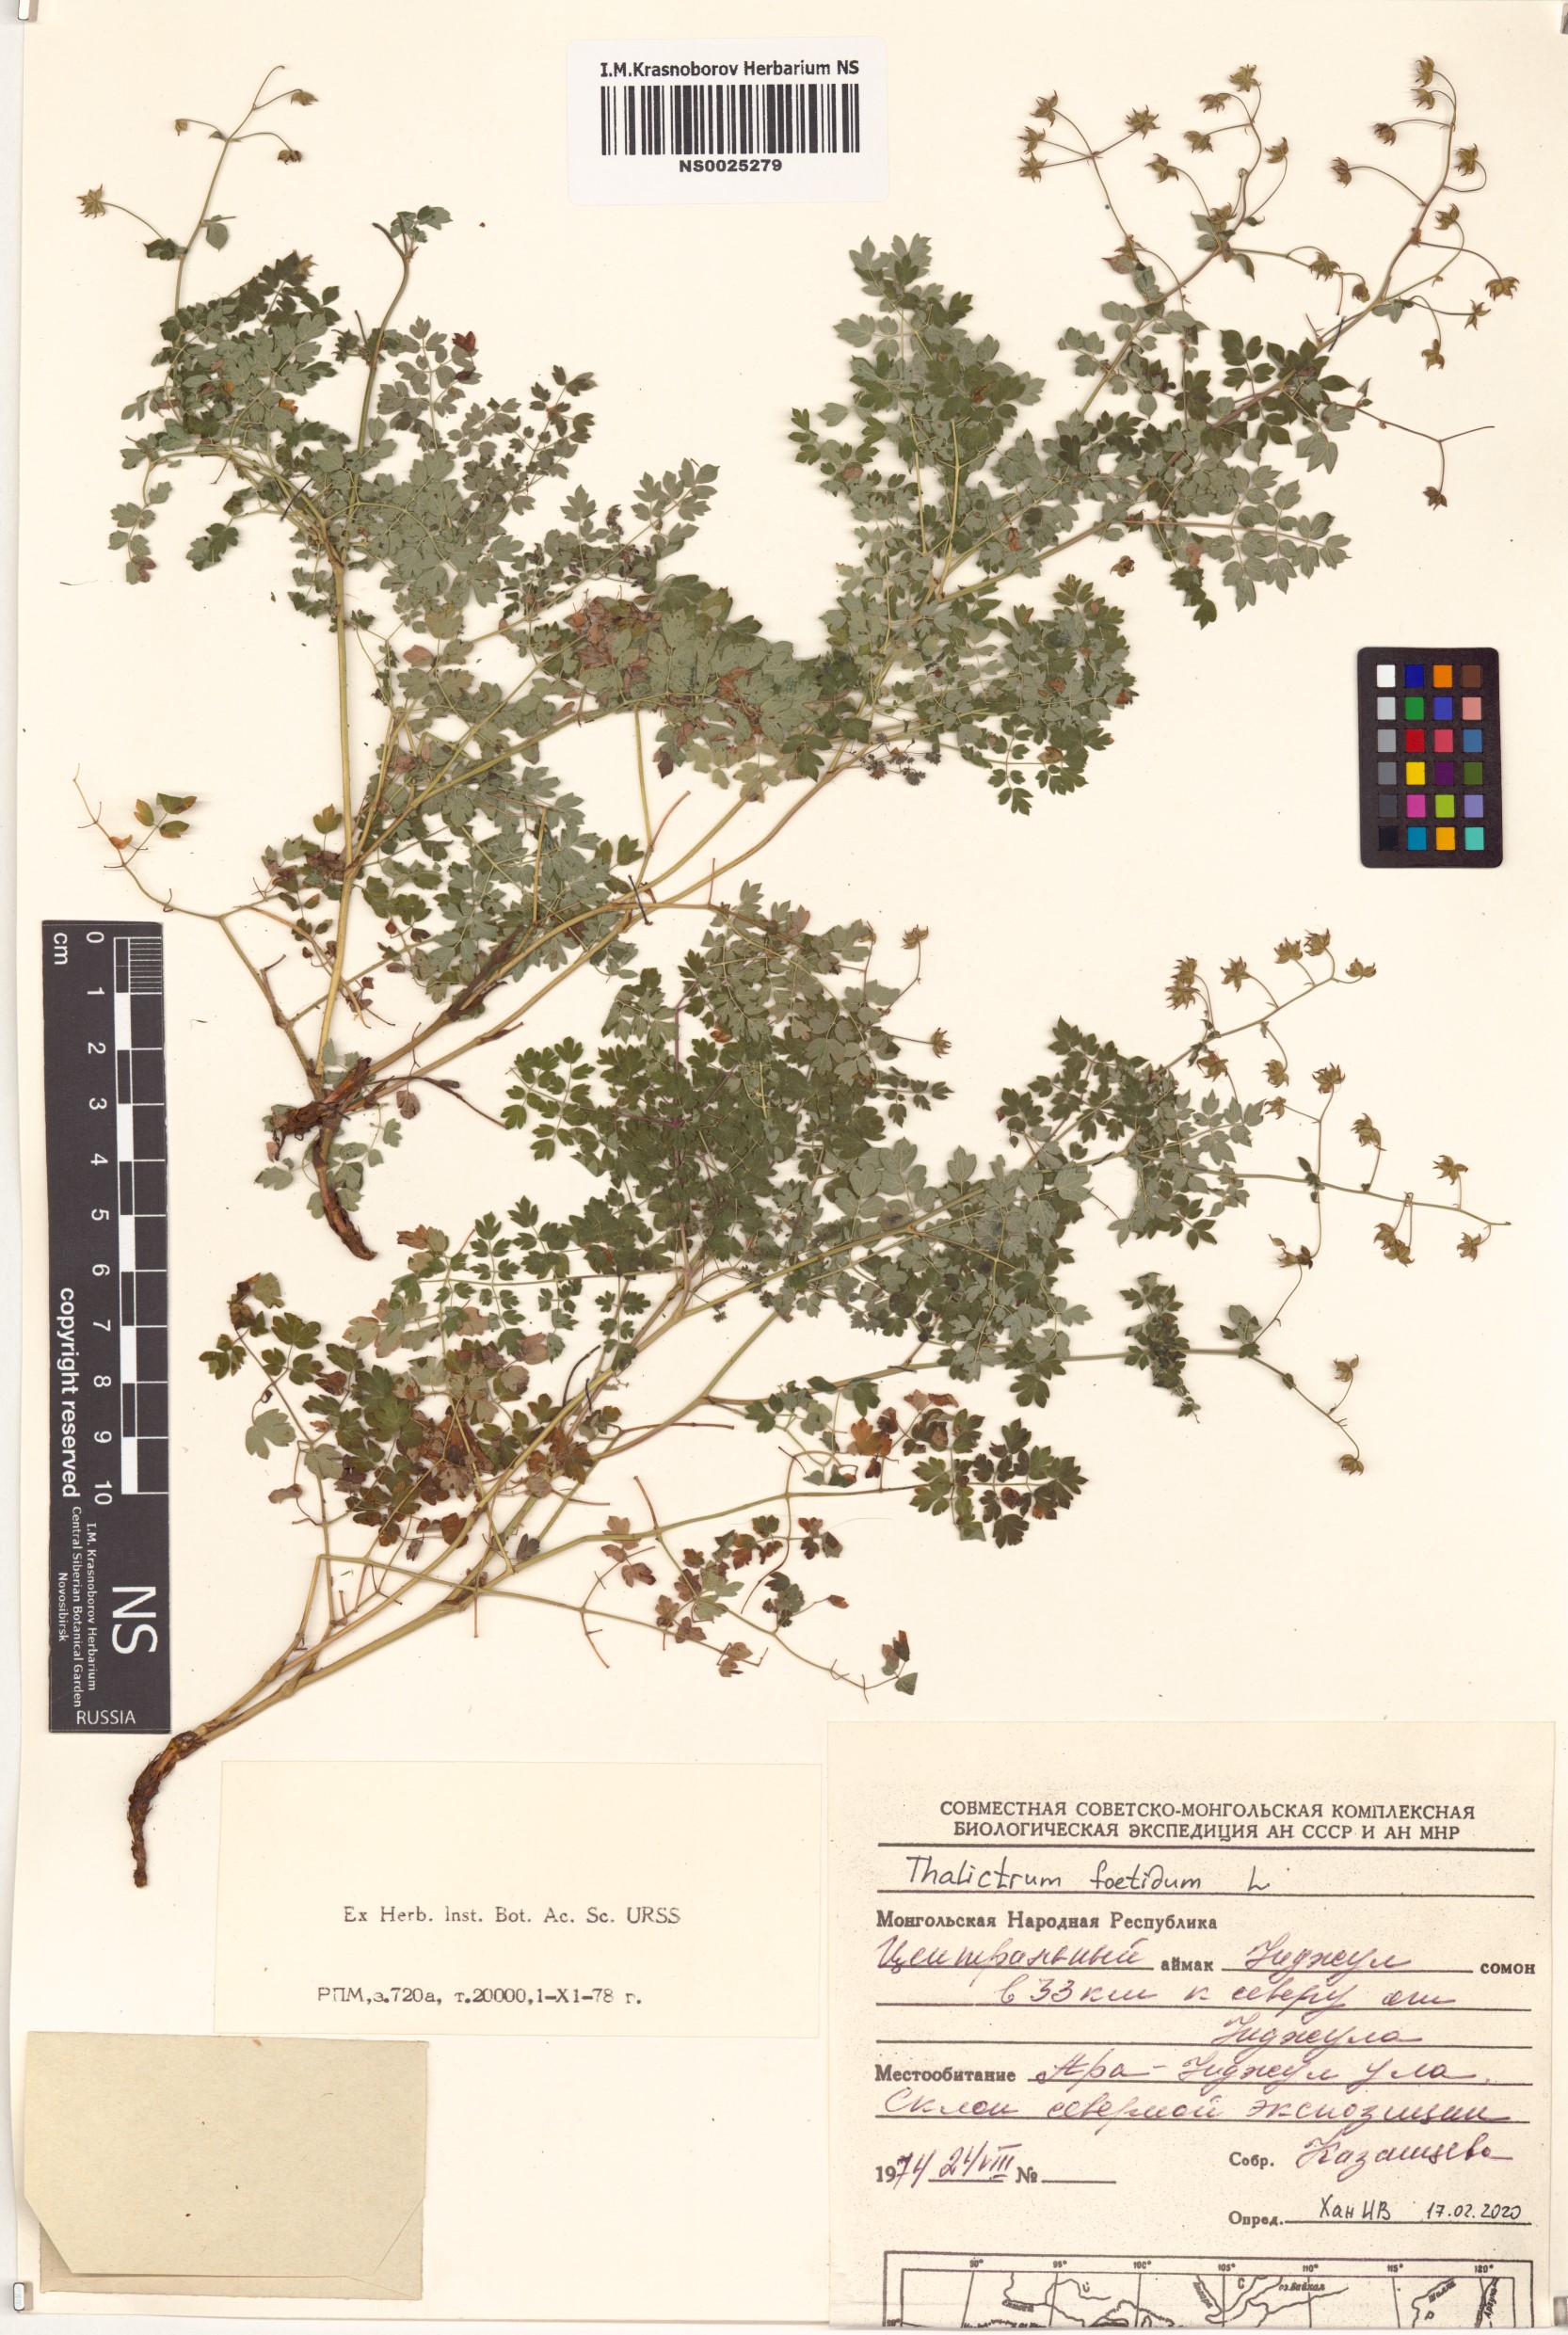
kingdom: Plantae
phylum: Tracheophyta
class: Magnoliopsida
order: Ranunculales
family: Ranunculaceae
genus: Thalictrum
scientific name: Thalictrum foetidum
